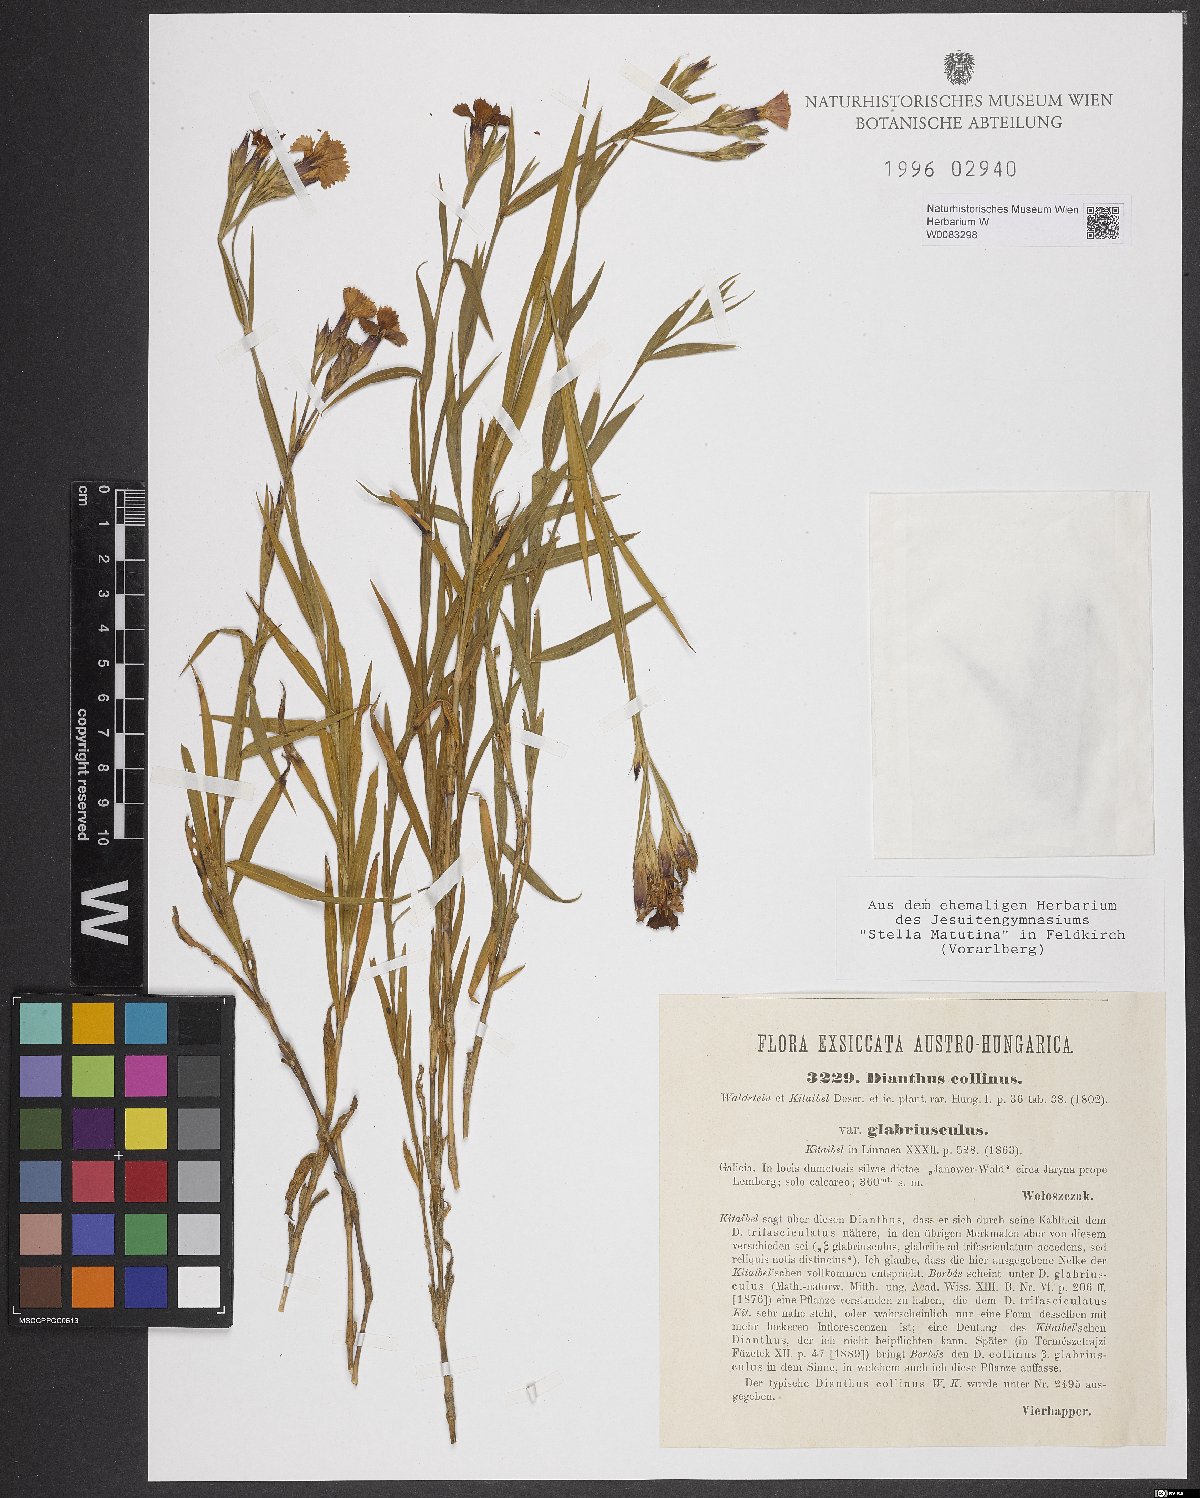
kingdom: Plantae
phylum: Tracheophyta
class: Magnoliopsida
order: Caryophyllales
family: Caryophyllaceae
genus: Dianthus
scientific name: Dianthus collinus
